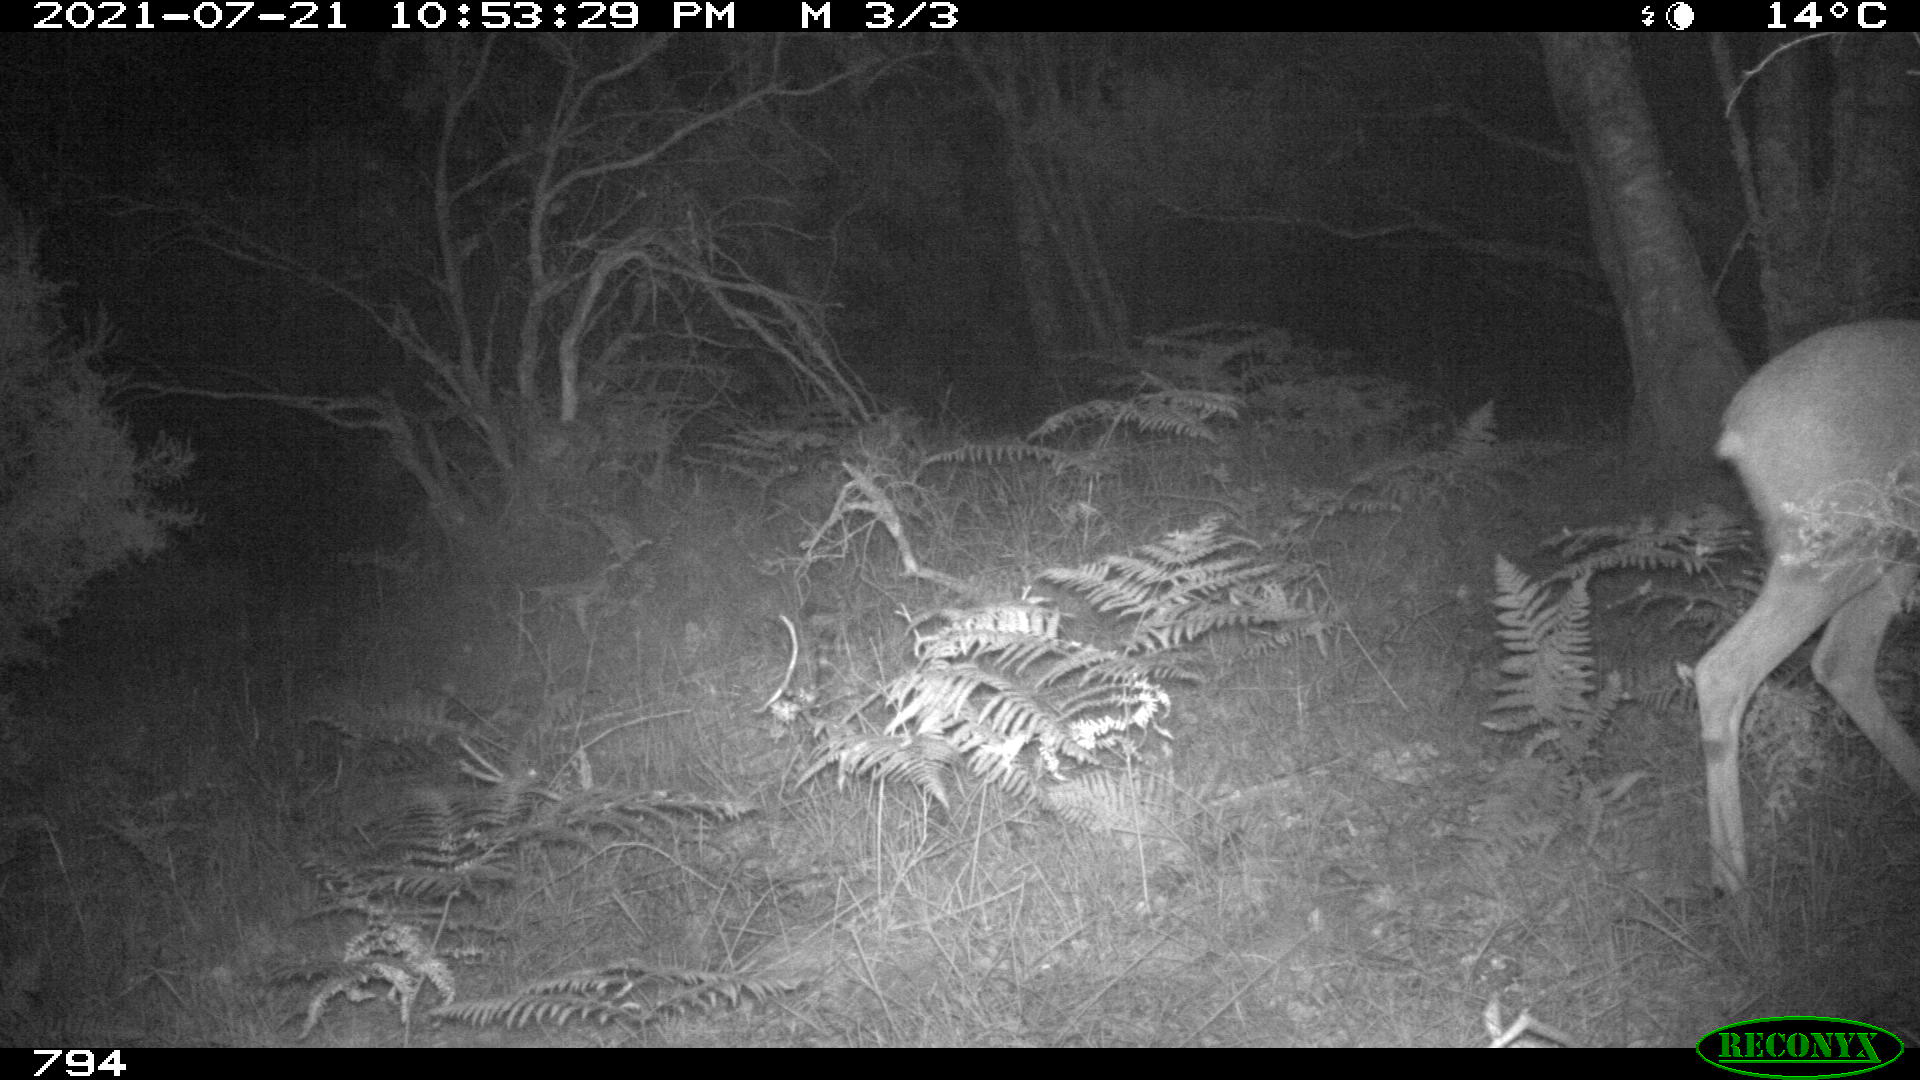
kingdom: Animalia
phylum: Chordata
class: Mammalia
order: Artiodactyla
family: Cervidae
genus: Capreolus
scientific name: Capreolus capreolus
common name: Western roe deer
